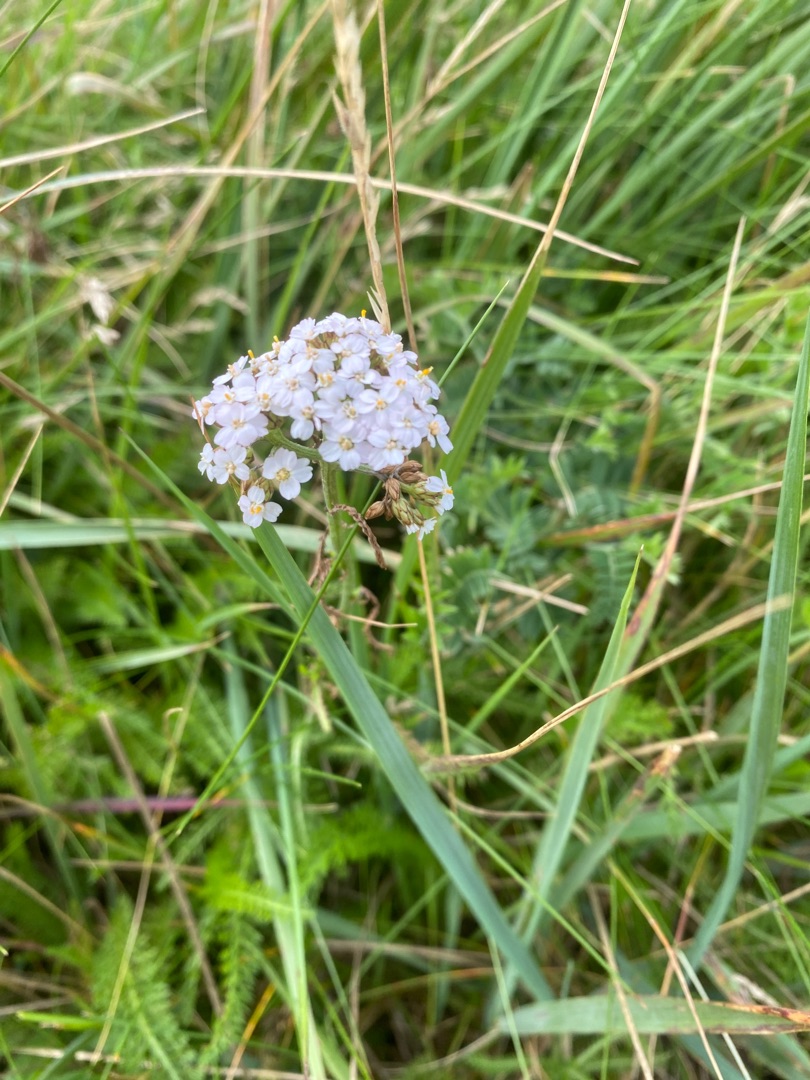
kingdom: Plantae
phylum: Tracheophyta
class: Magnoliopsida
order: Asterales
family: Asteraceae
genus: Achillea
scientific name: Achillea millefolium
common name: Almindelig røllike
